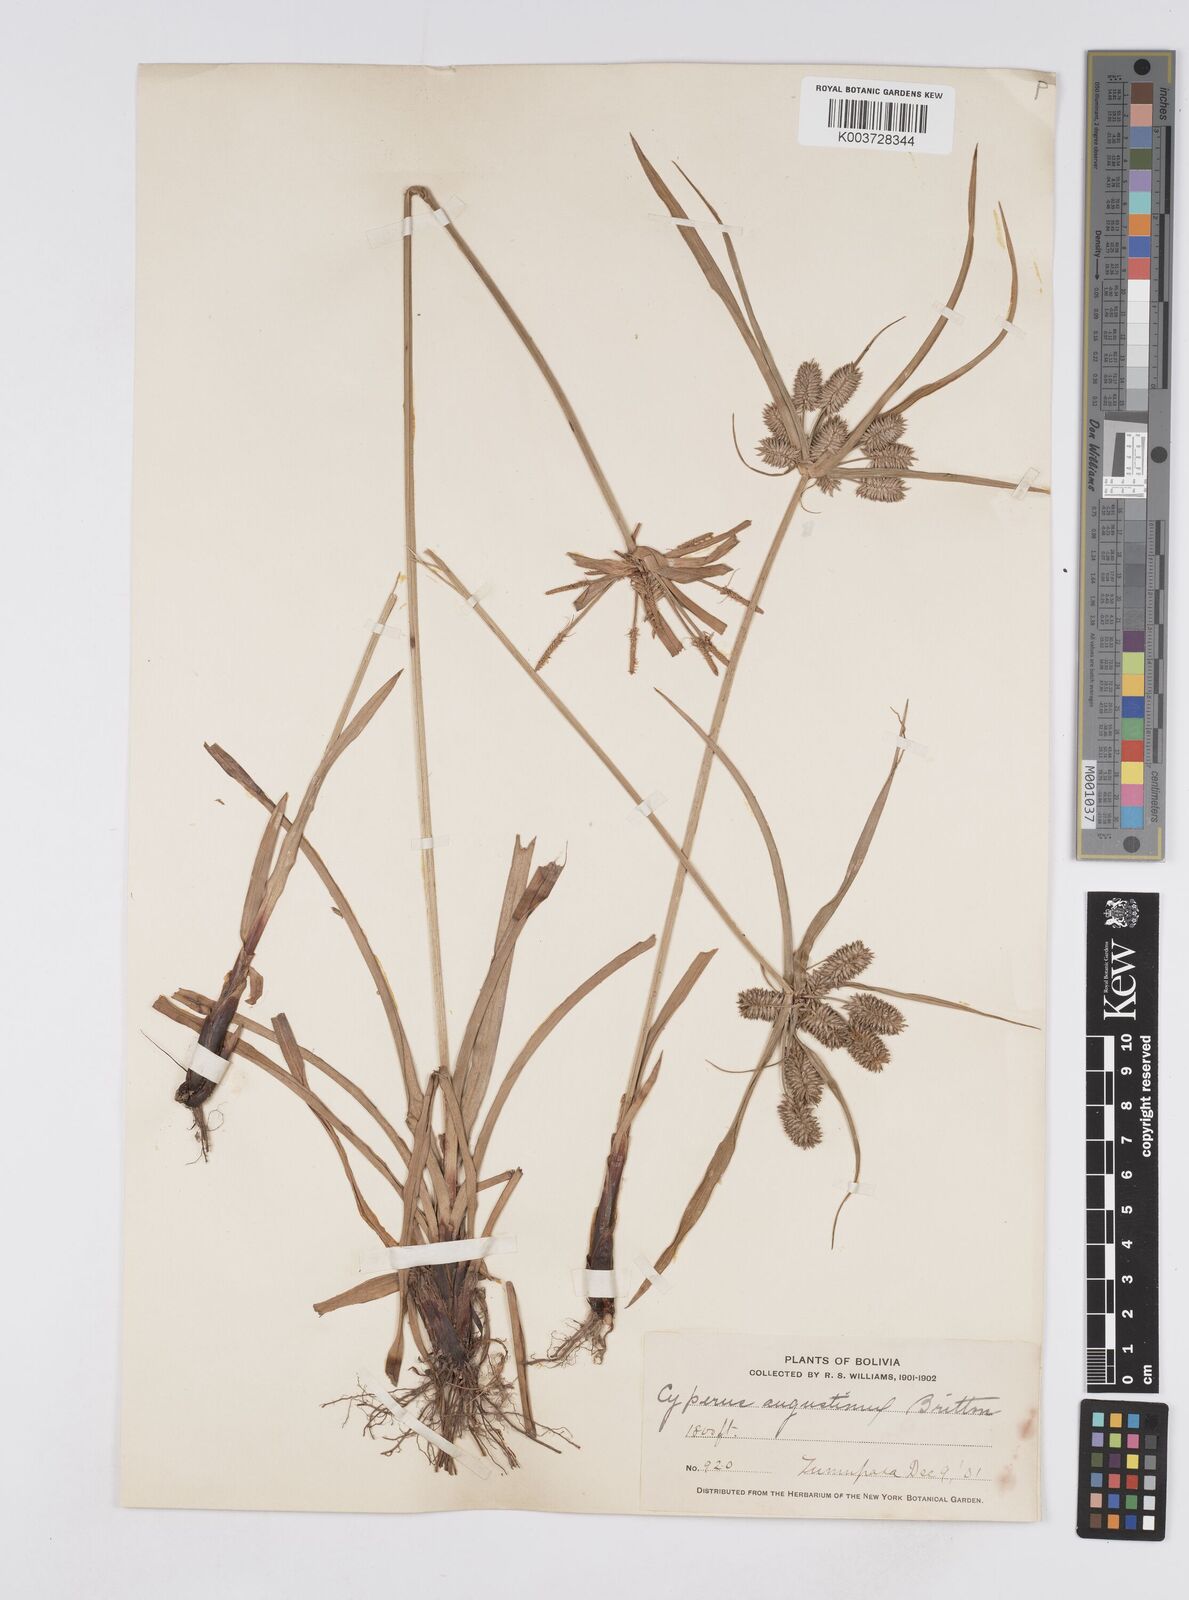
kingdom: Plantae
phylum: Tracheophyta
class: Liliopsida
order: Poales
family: Cyperaceae
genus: Cyperus
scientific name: Cyperus leonensis
